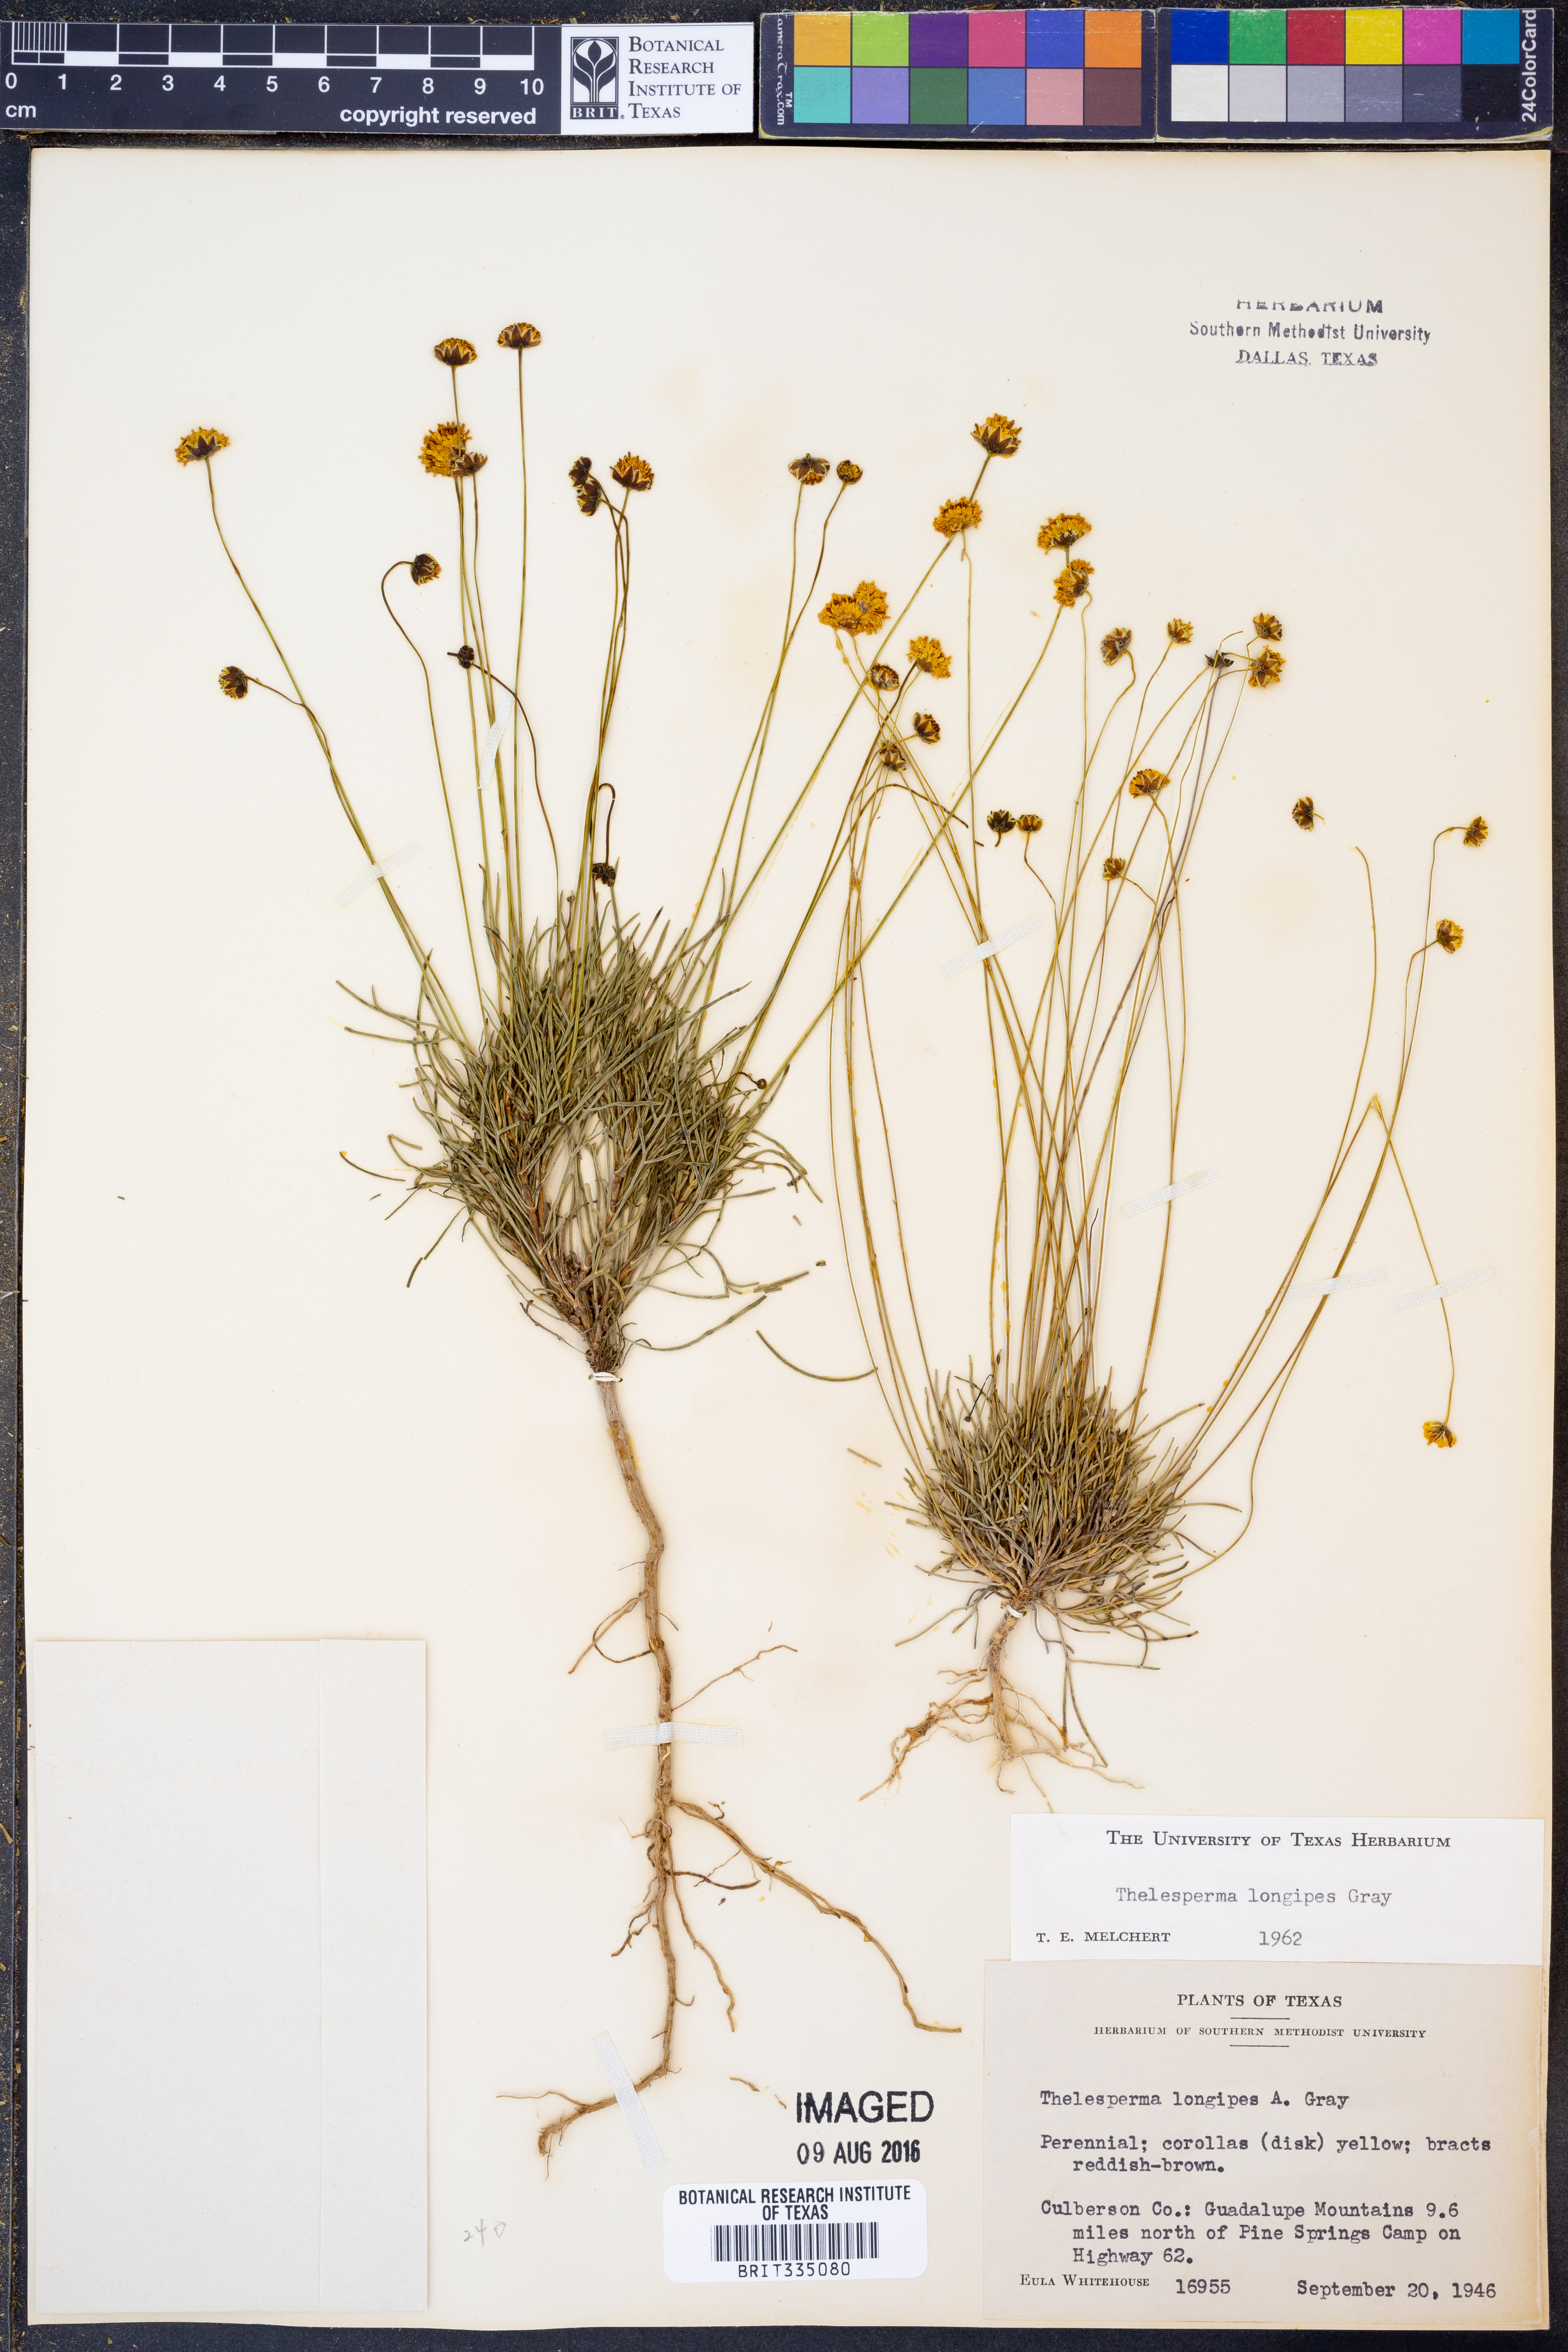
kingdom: Plantae
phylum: Tracheophyta
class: Magnoliopsida
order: Asterales
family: Asteraceae
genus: Thelesperma
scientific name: Thelesperma longipes
